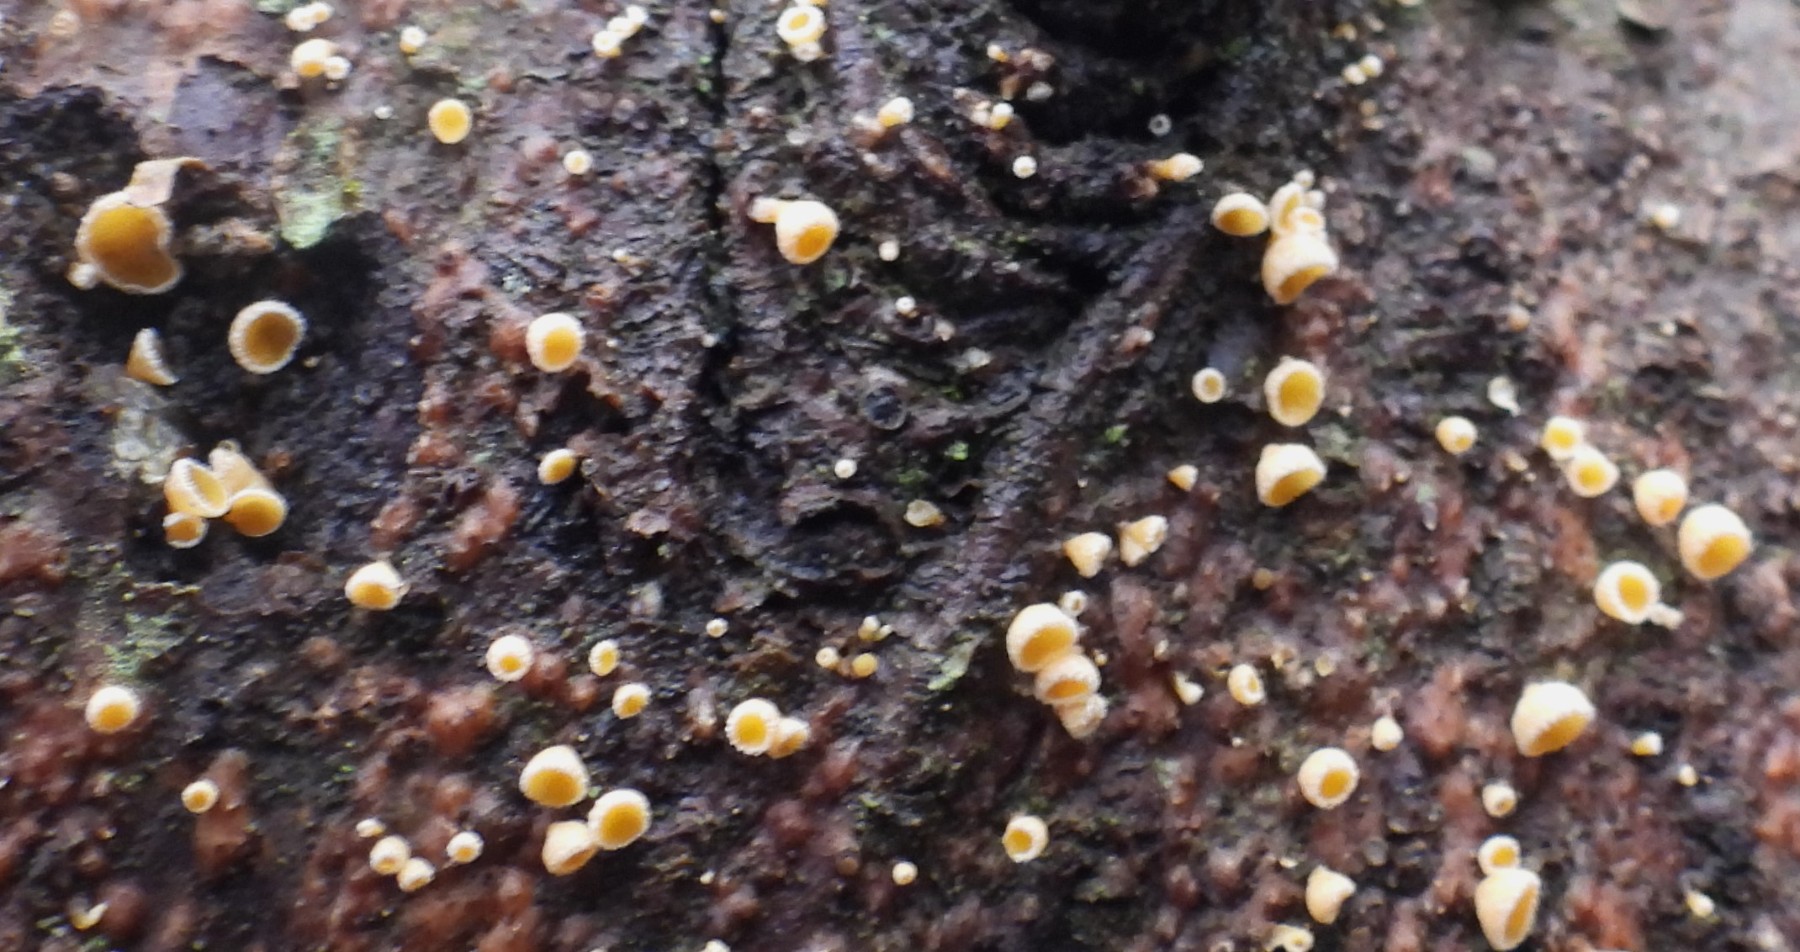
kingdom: Fungi
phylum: Ascomycota
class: Leotiomycetes
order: Helotiales
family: Lachnaceae
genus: Lachnellula
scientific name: Lachnellula
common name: frynseskive
